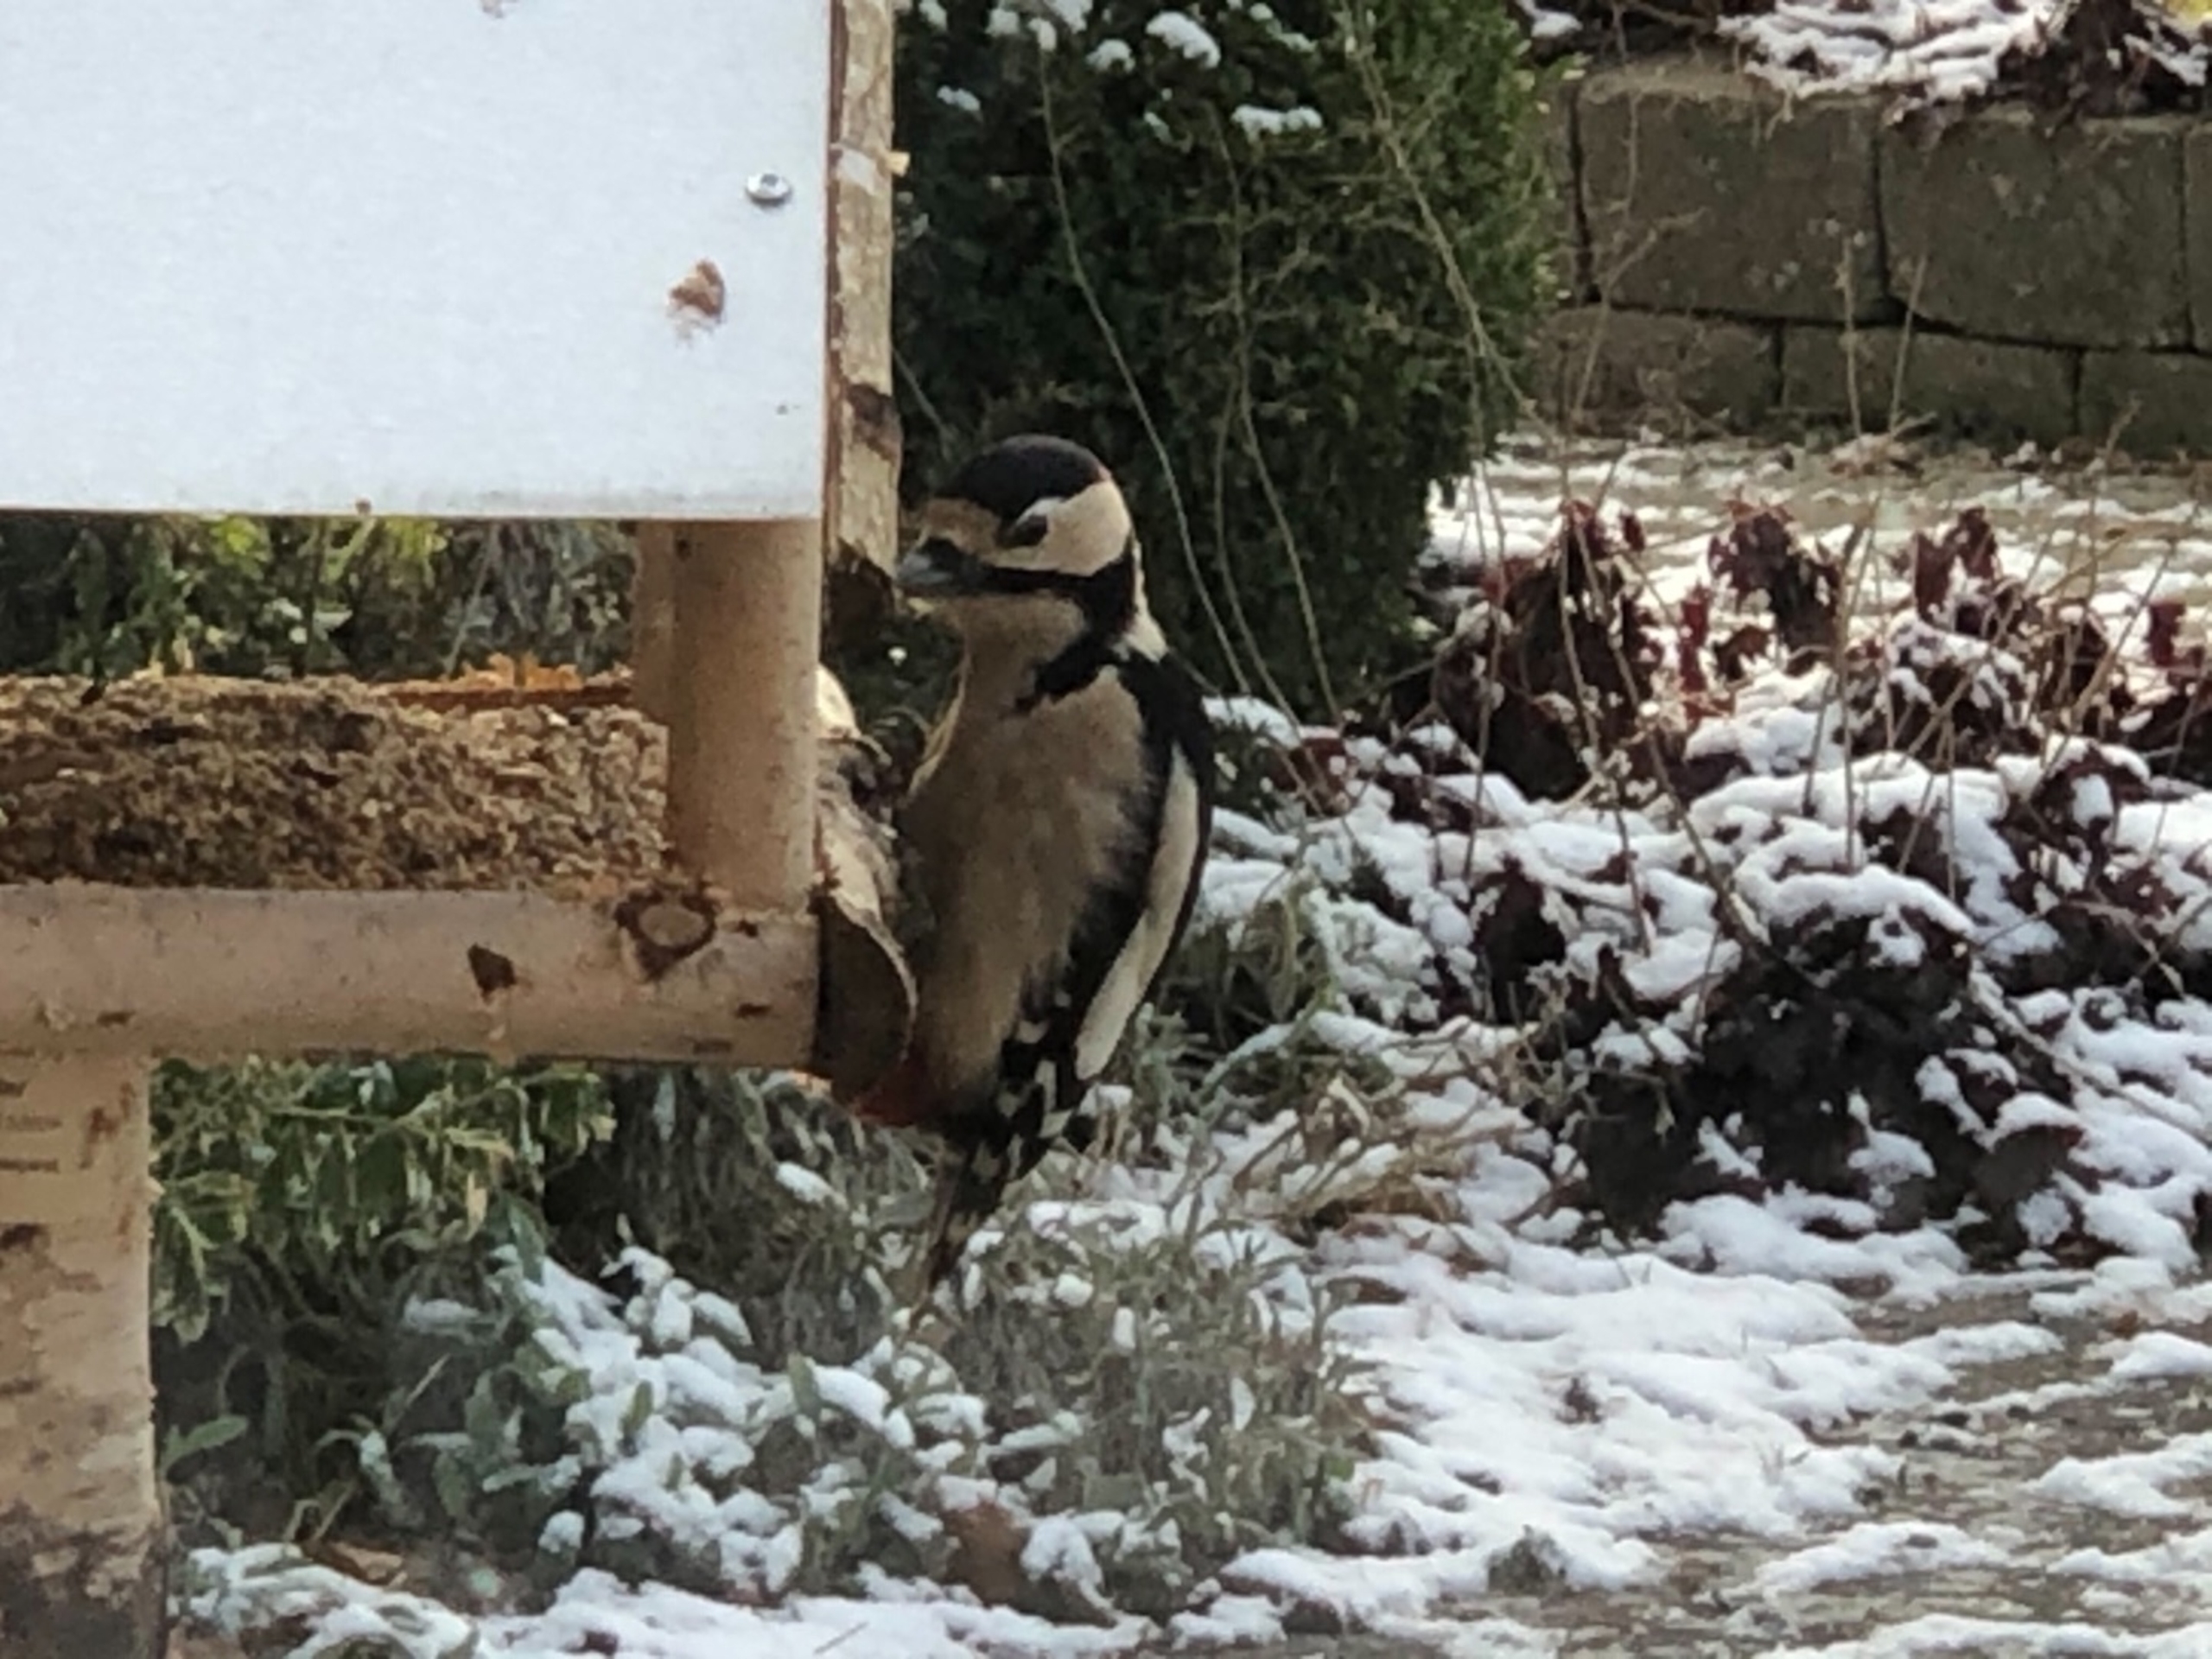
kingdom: Animalia
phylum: Chordata
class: Aves
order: Piciformes
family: Picidae
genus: Dendrocopos
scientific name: Dendrocopos major
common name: Nordlig stor flagspætte
